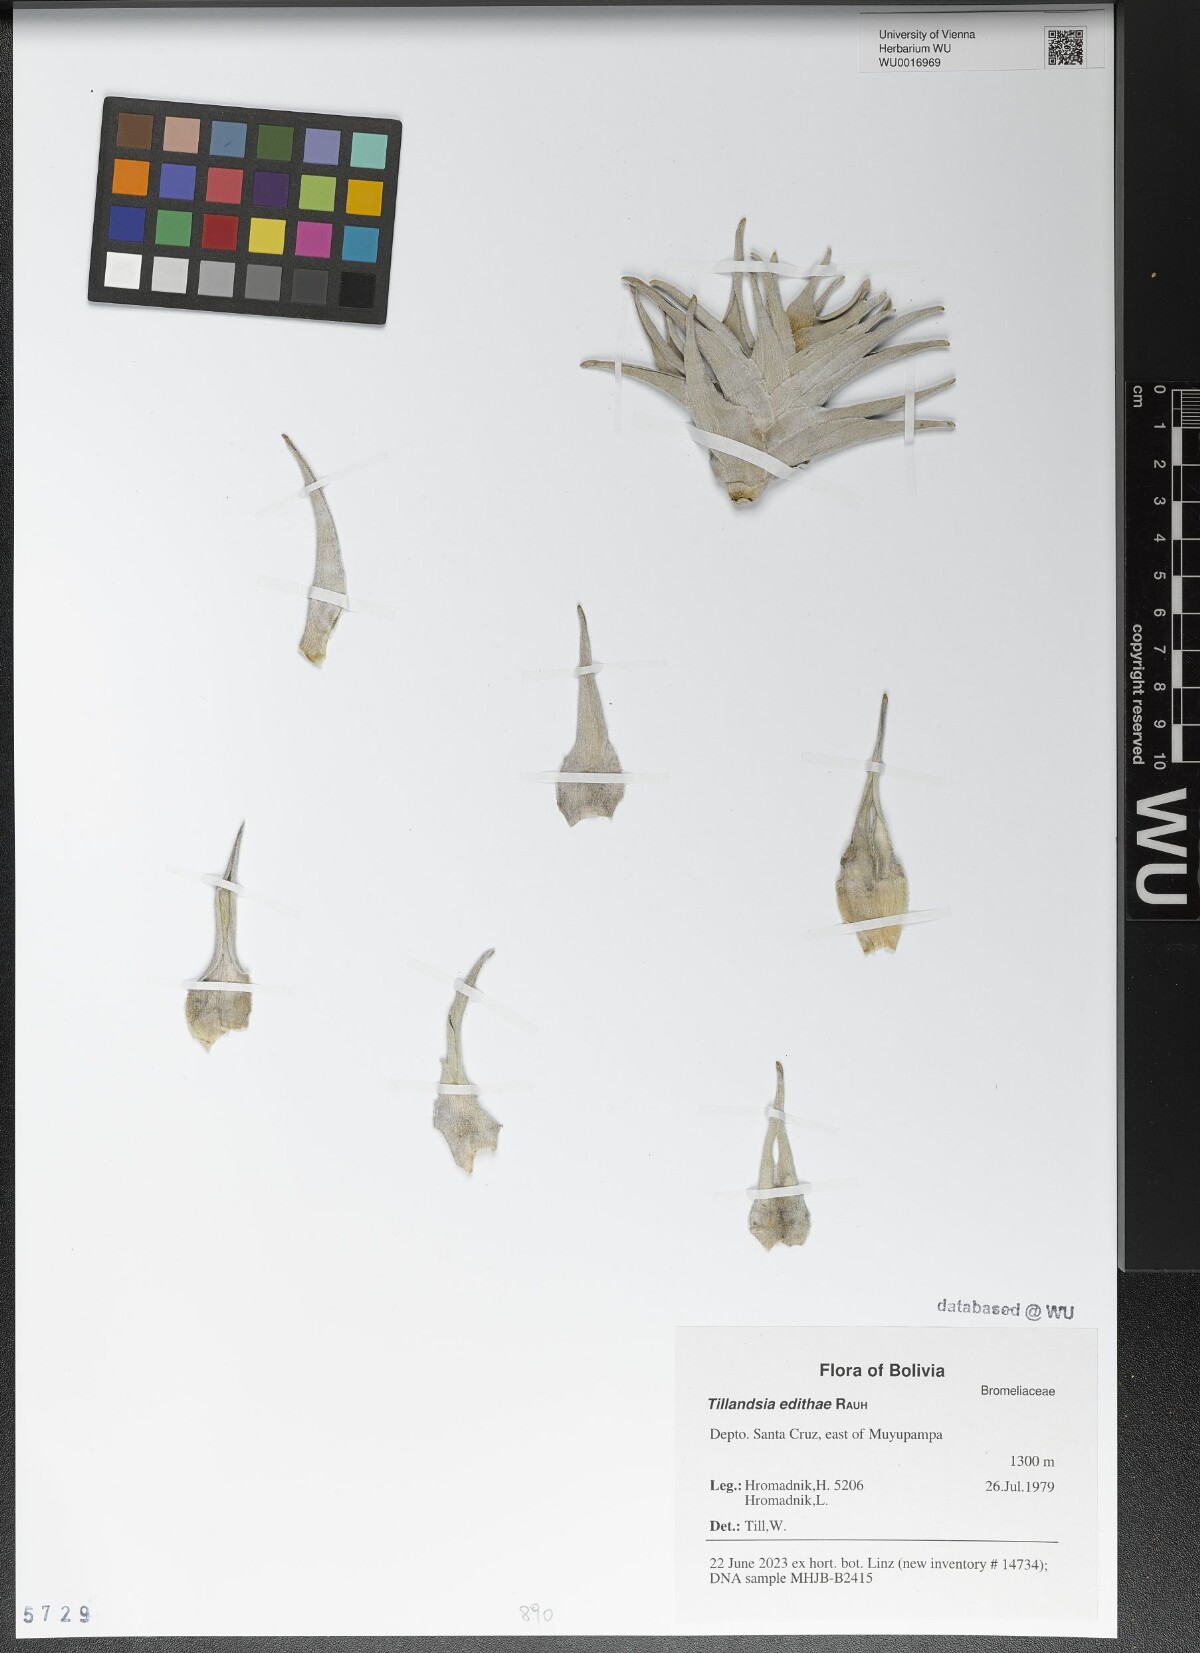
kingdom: Plantae
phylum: Tracheophyta
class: Liliopsida
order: Poales
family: Bromeliaceae
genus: Tillandsia
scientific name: Tillandsia edithae
